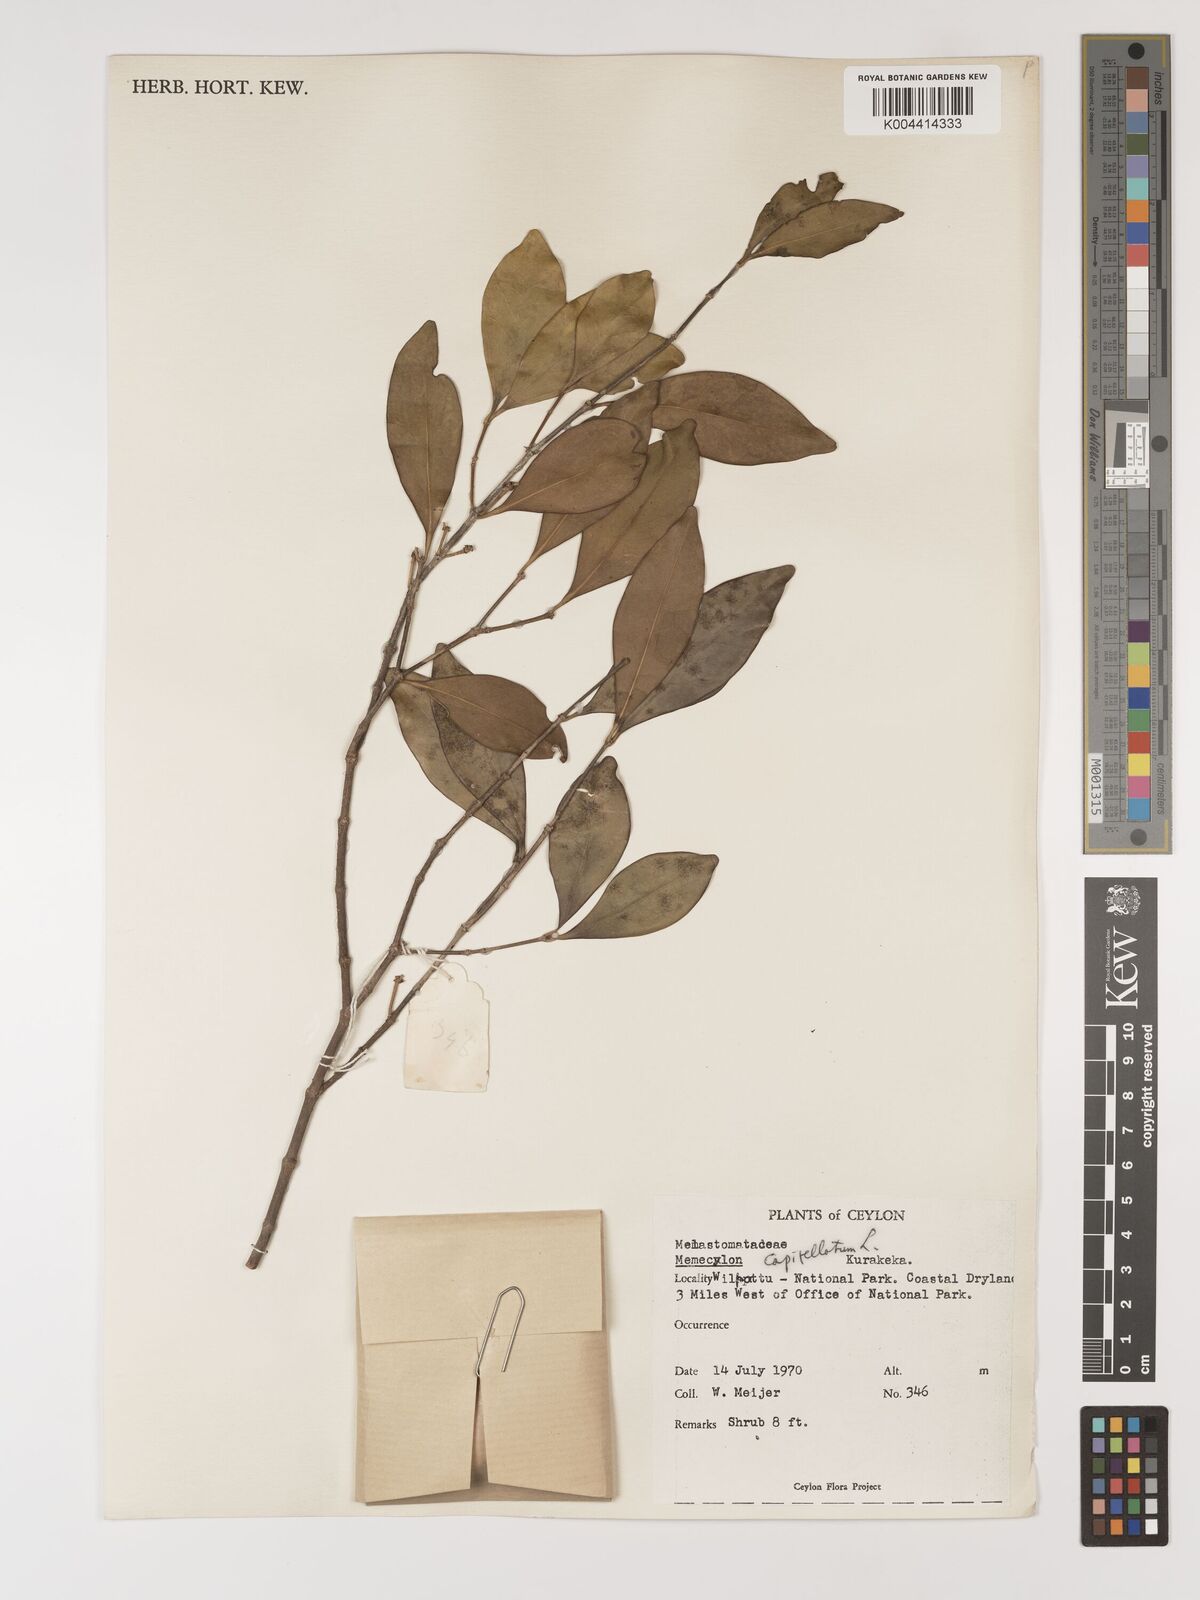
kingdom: Plantae
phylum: Tracheophyta
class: Magnoliopsida
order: Myrtales
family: Melastomataceae
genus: Memecylon
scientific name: Memecylon capitellatum
